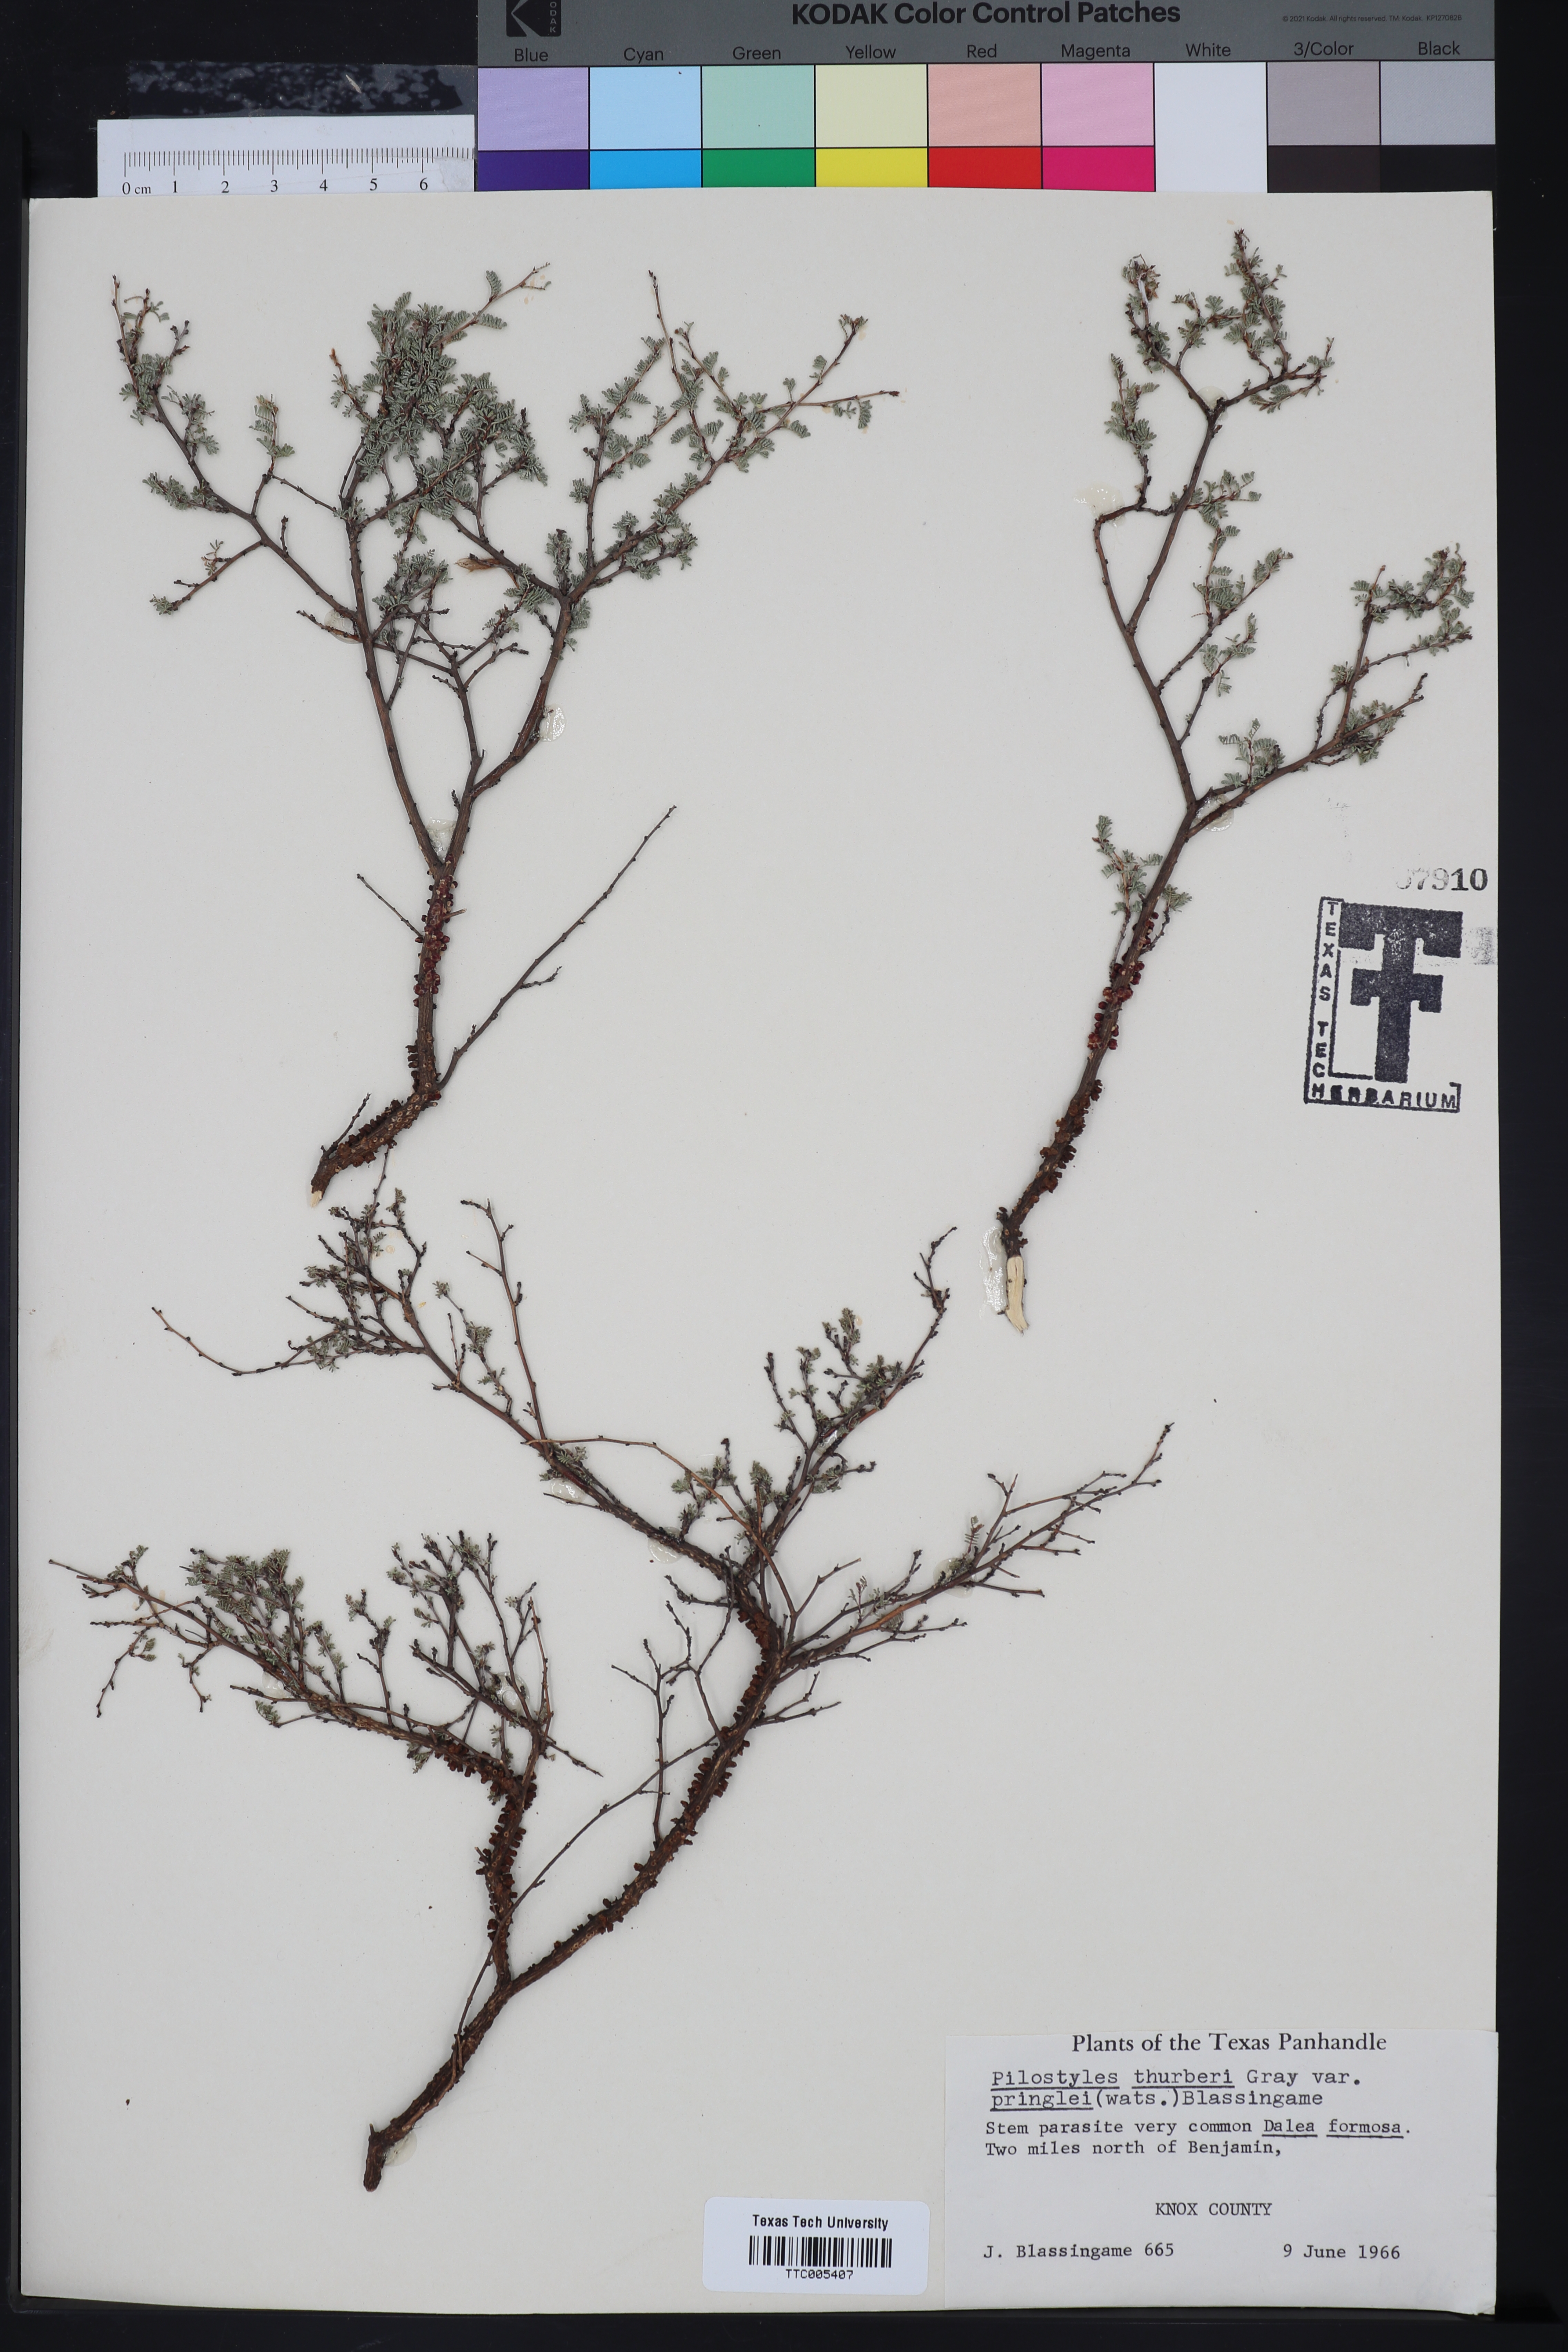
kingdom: Plantae
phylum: Tracheophyta
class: Magnoliopsida
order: Cucurbitales
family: Apodanthaceae
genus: Pilostyles
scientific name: Pilostyles thurberi
